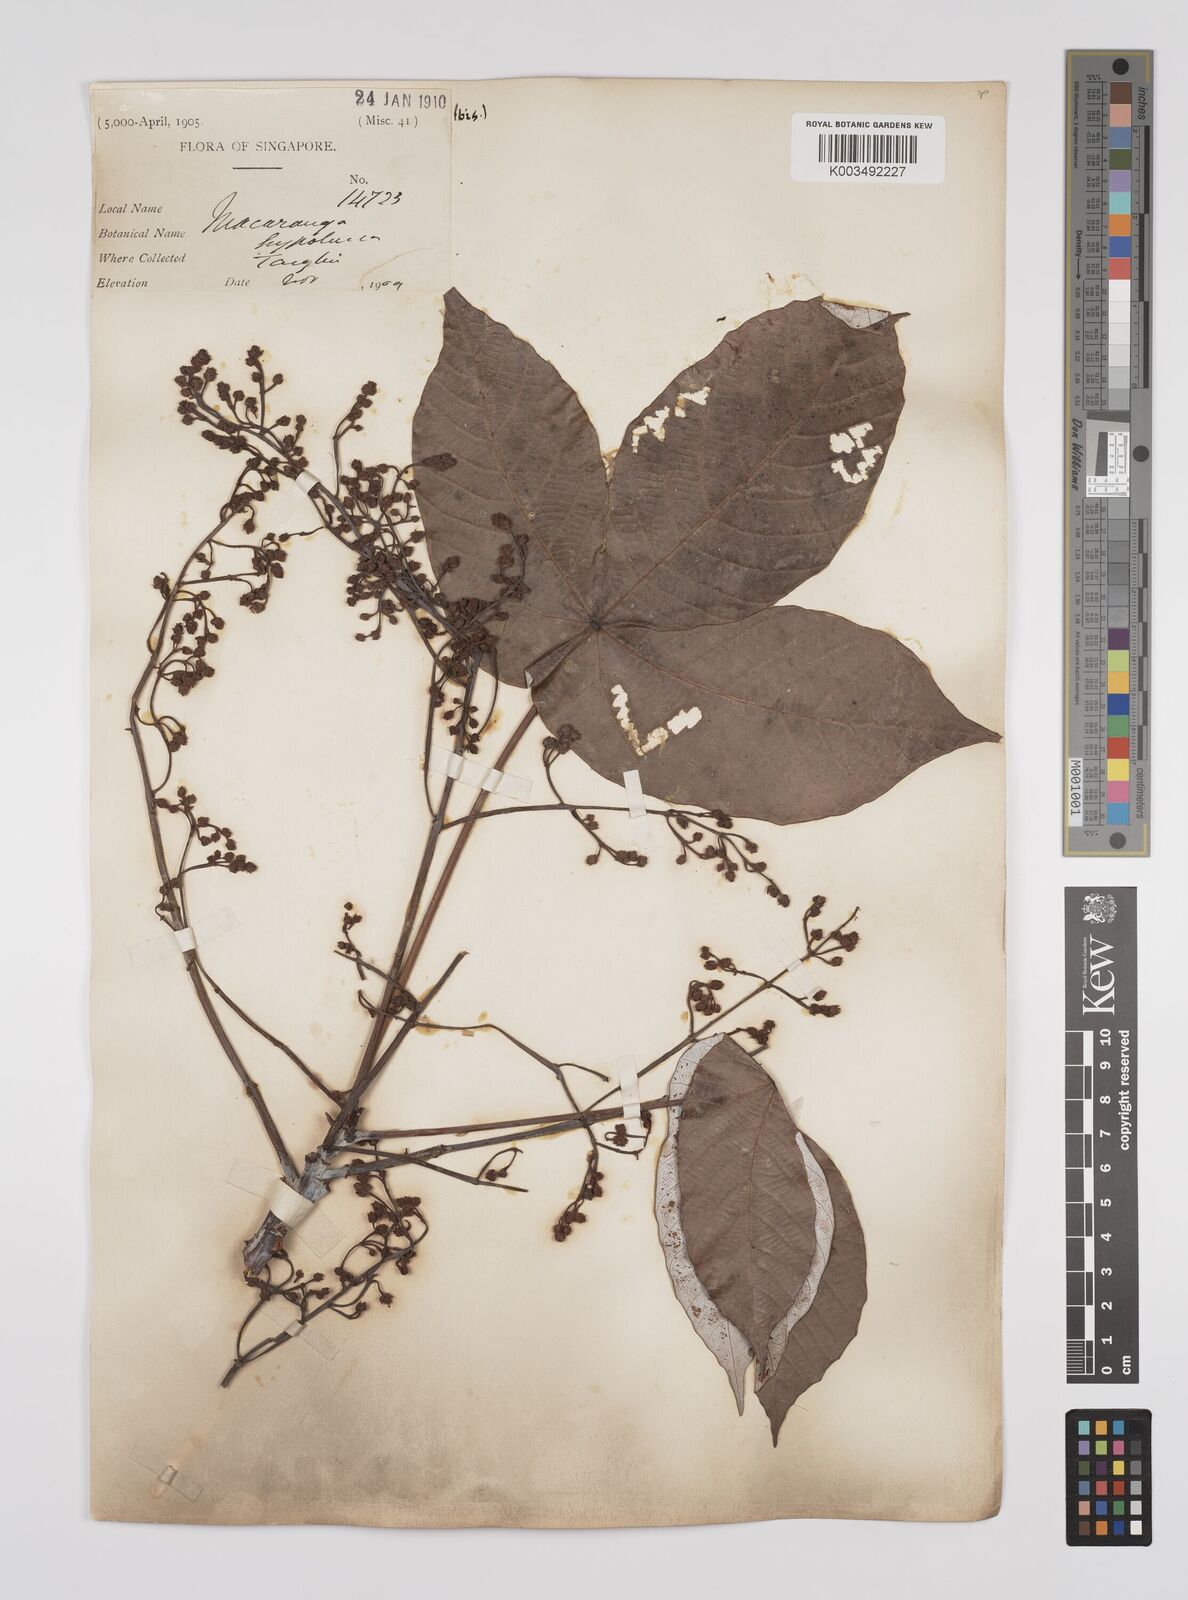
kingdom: Plantae
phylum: Tracheophyta
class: Magnoliopsida
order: Malpighiales
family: Euphorbiaceae
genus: Macaranga
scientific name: Macaranga hypoleuca
